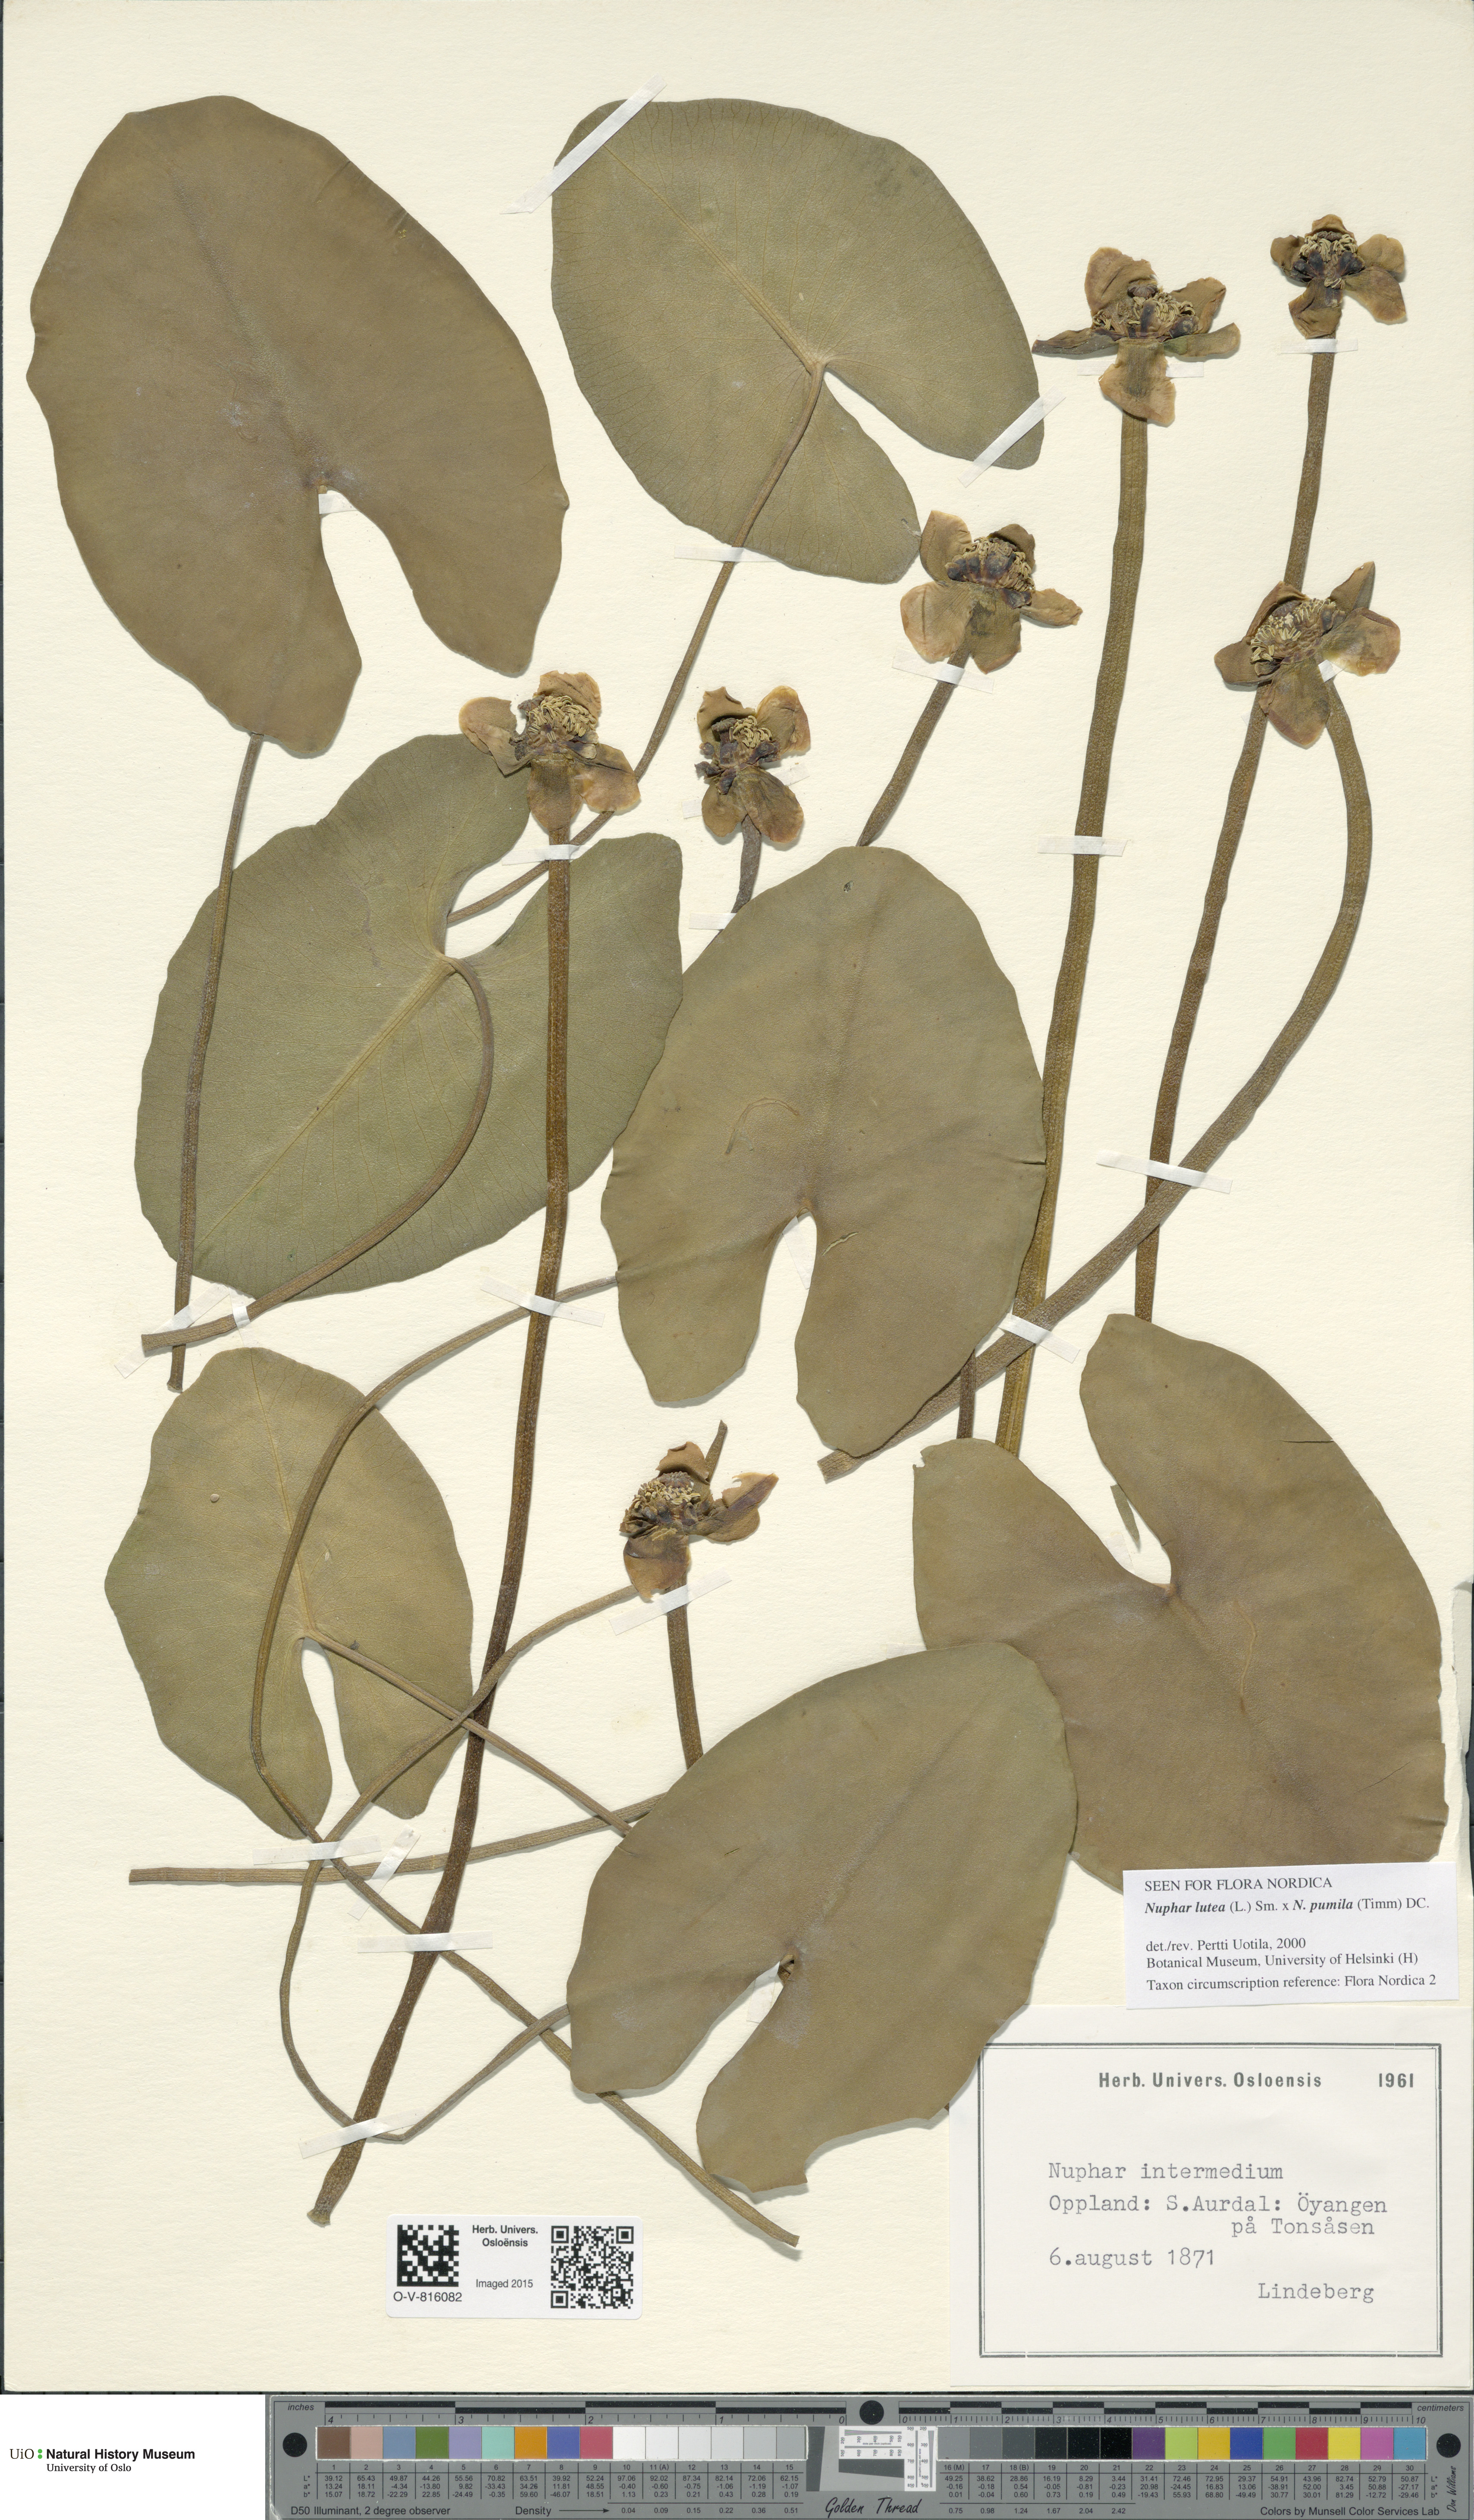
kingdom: Plantae
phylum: Tracheophyta
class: Magnoliopsida
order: Nymphaeales
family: Nymphaeaceae
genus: Nuphar
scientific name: Nuphar
